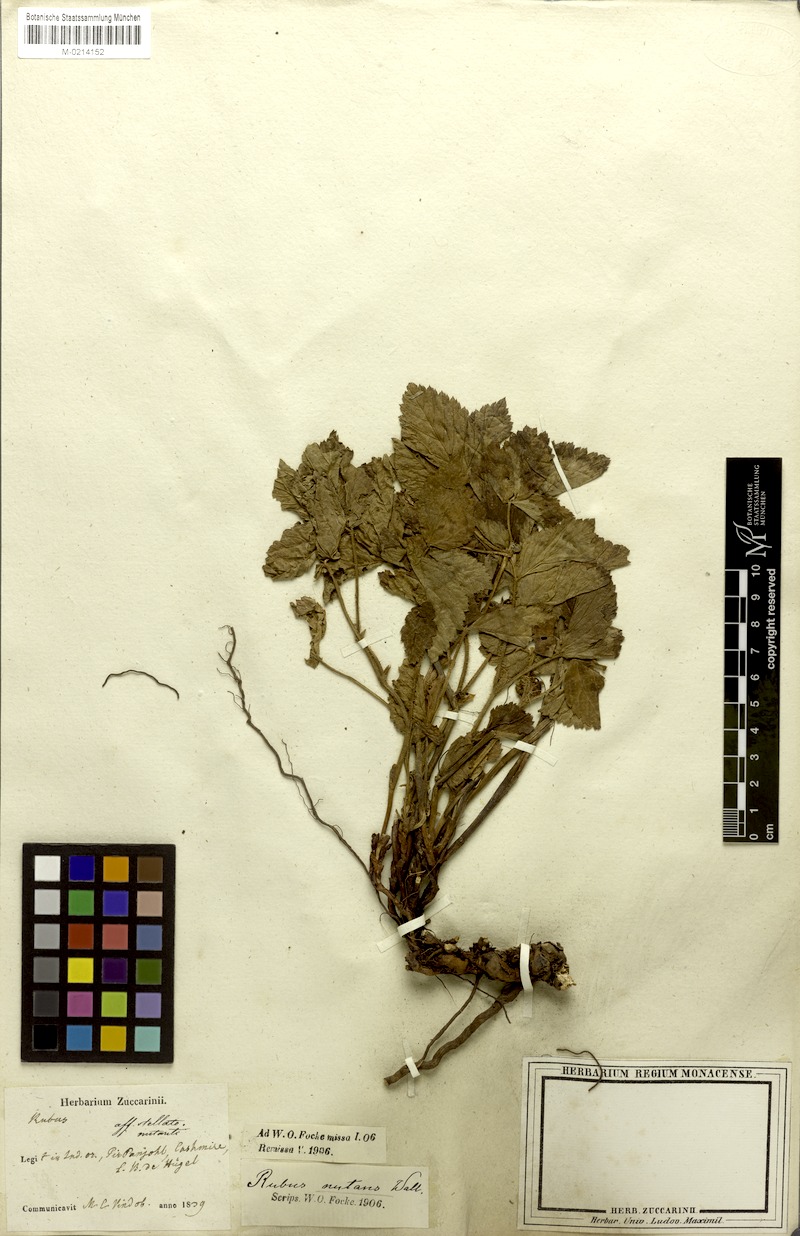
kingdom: Plantae
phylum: Tracheophyta
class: Magnoliopsida
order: Rosales
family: Rosaceae
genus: Rubus
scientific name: Rubus saxatilis
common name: Stone bramble
